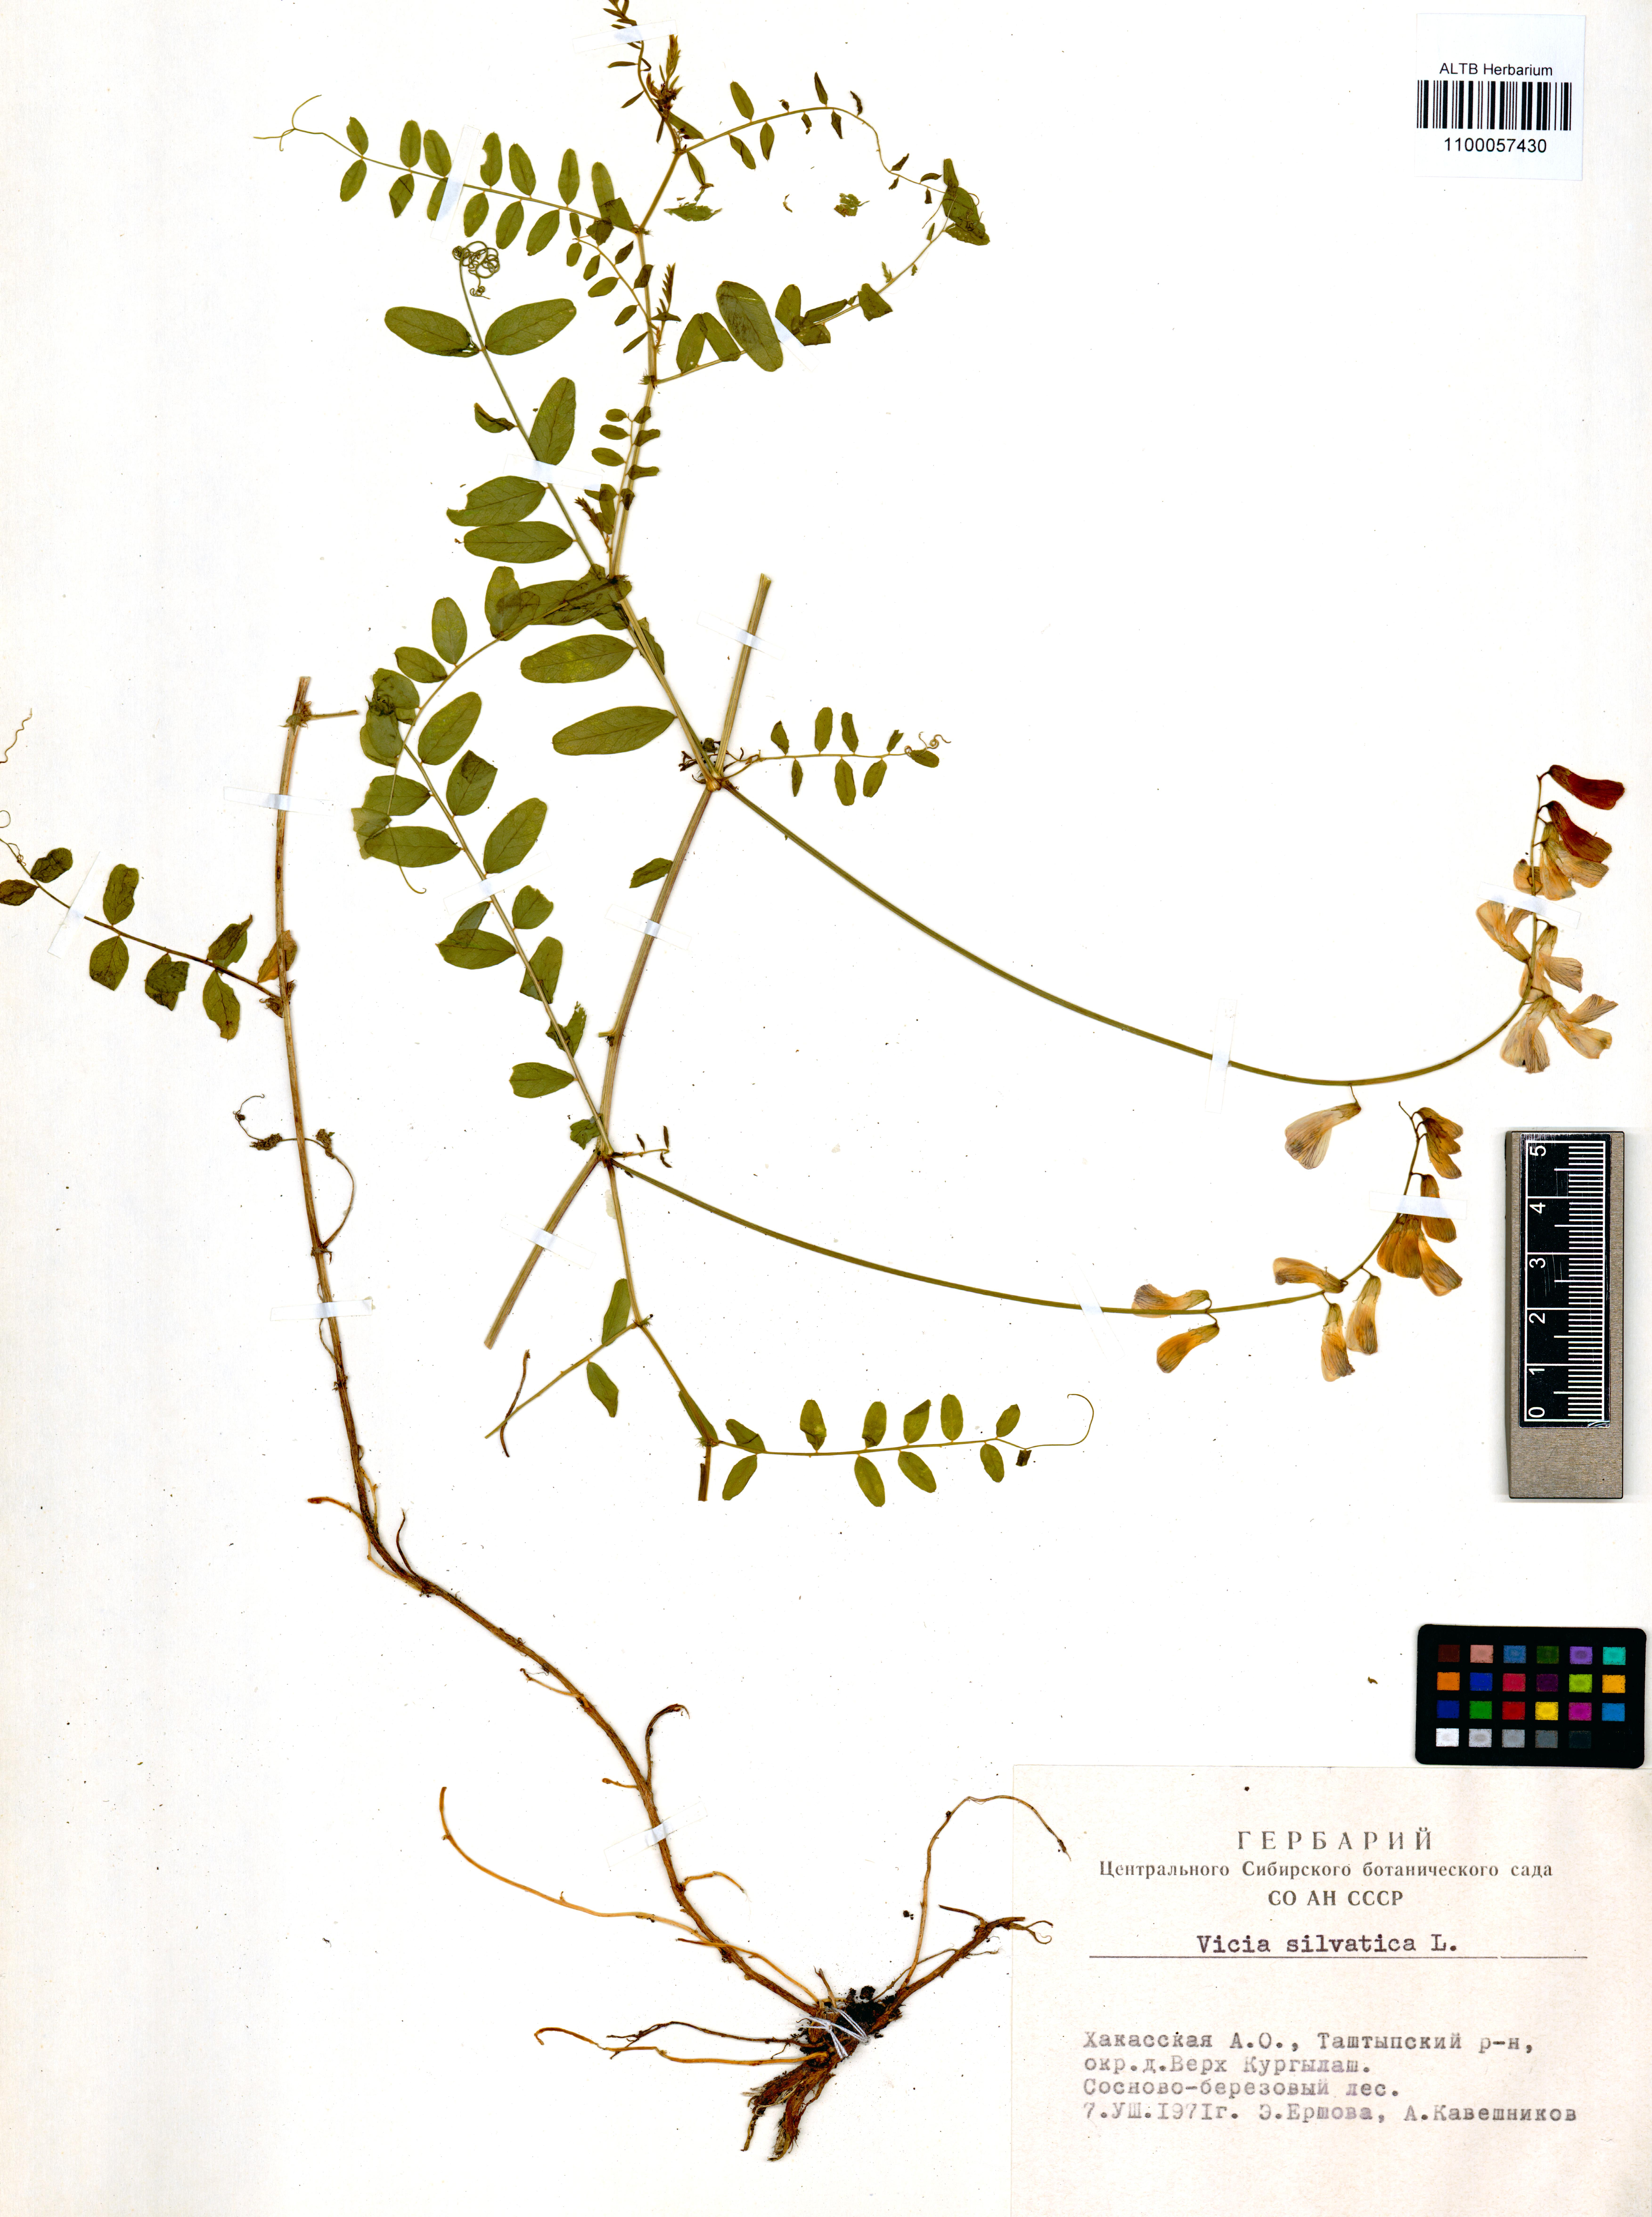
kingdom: Plantae
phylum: Tracheophyta
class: Magnoliopsida
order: Fabales
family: Fabaceae
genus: Vicia
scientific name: Vicia sylvatica
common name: Wood vetch
